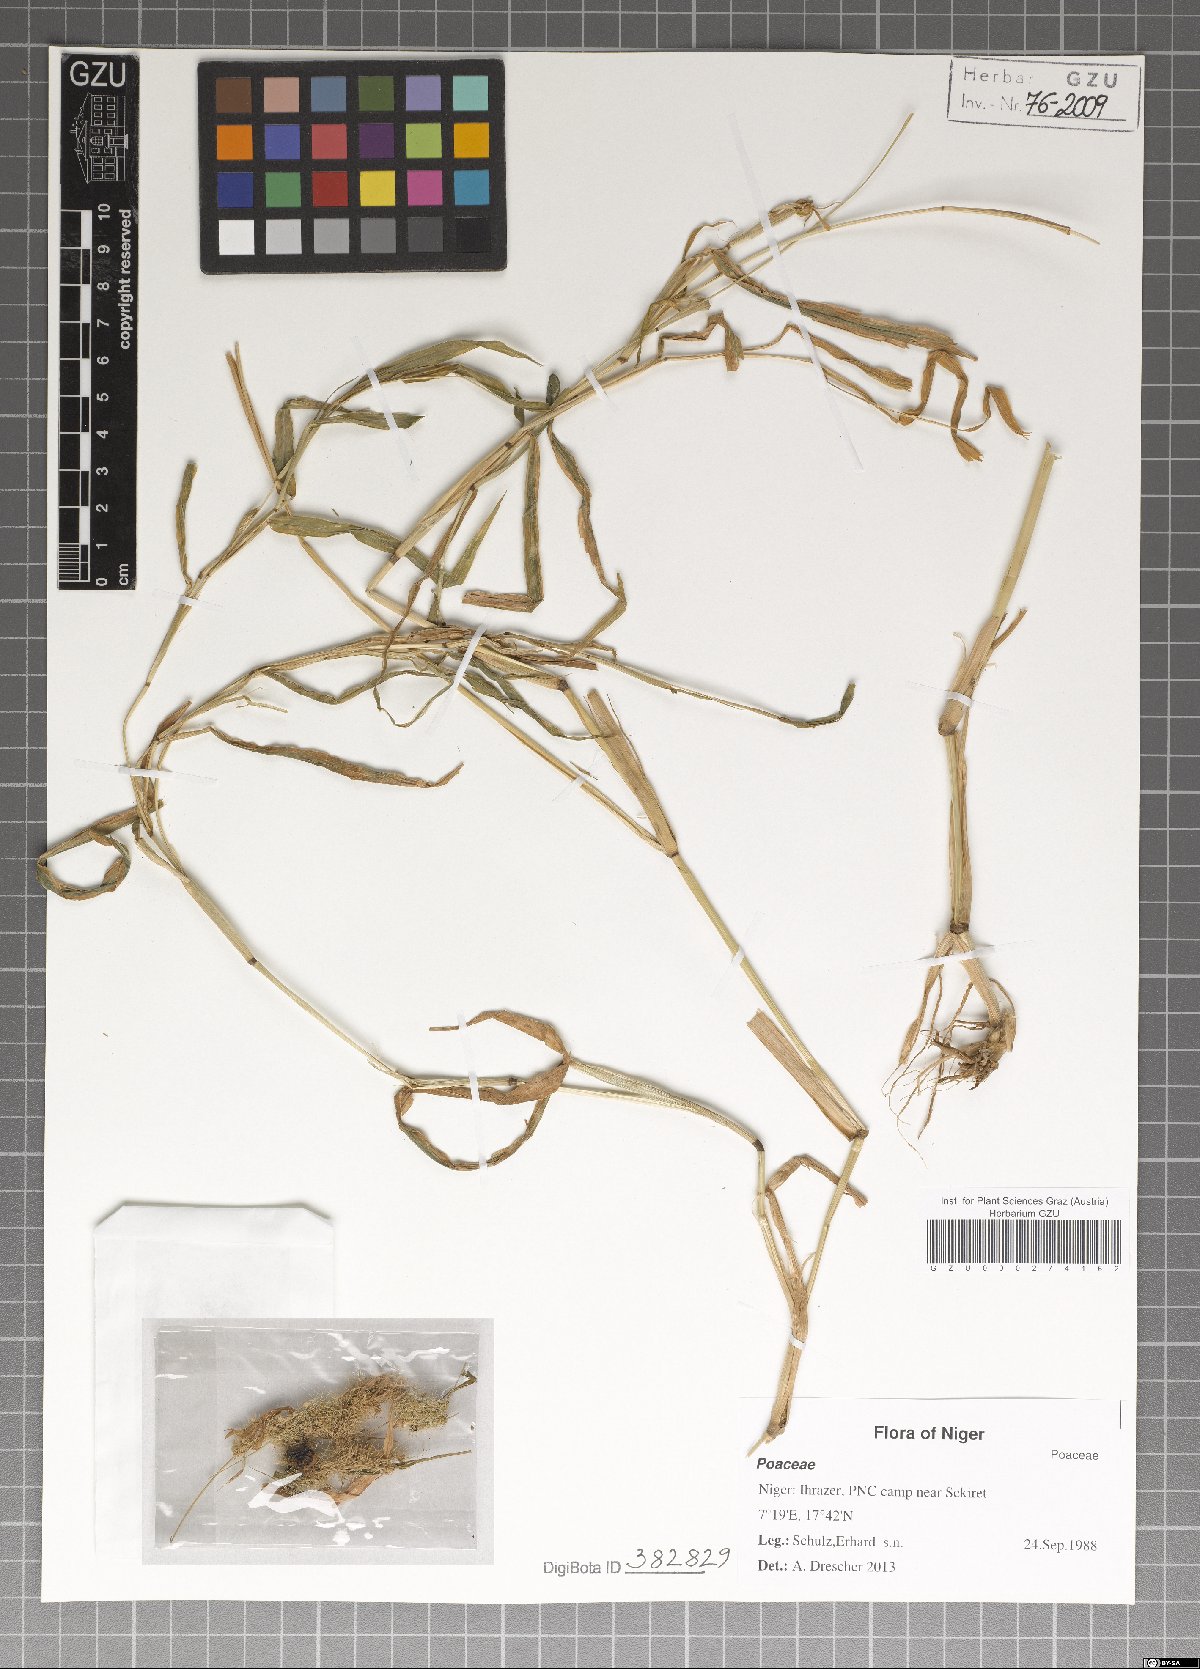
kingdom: Plantae
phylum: Tracheophyta
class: Liliopsida
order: Poales
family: Poaceae
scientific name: Poaceae
